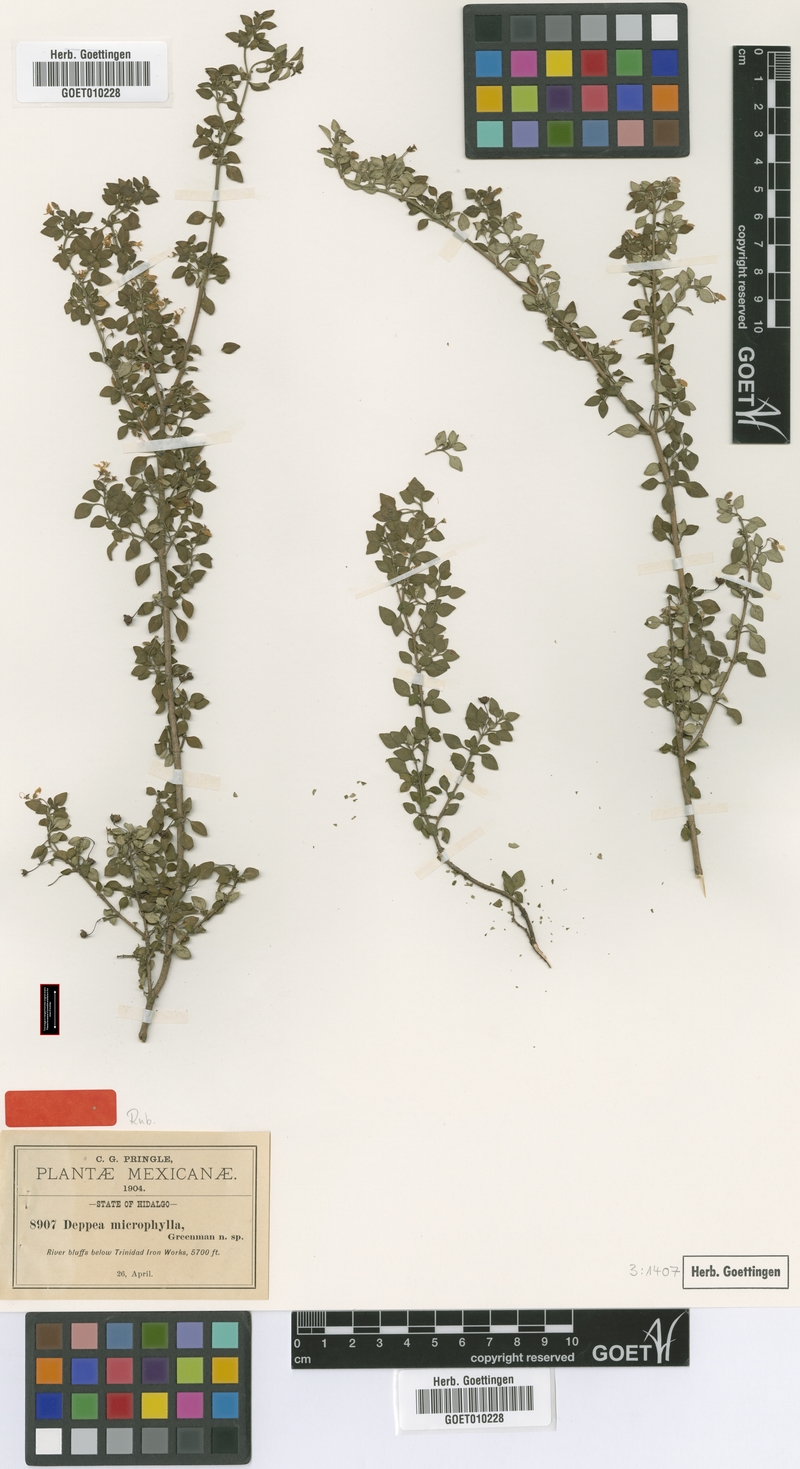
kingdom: Plantae
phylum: Tracheophyta
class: Magnoliopsida
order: Gentianales
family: Rubiaceae
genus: Deppea
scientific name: Deppea microphylla
